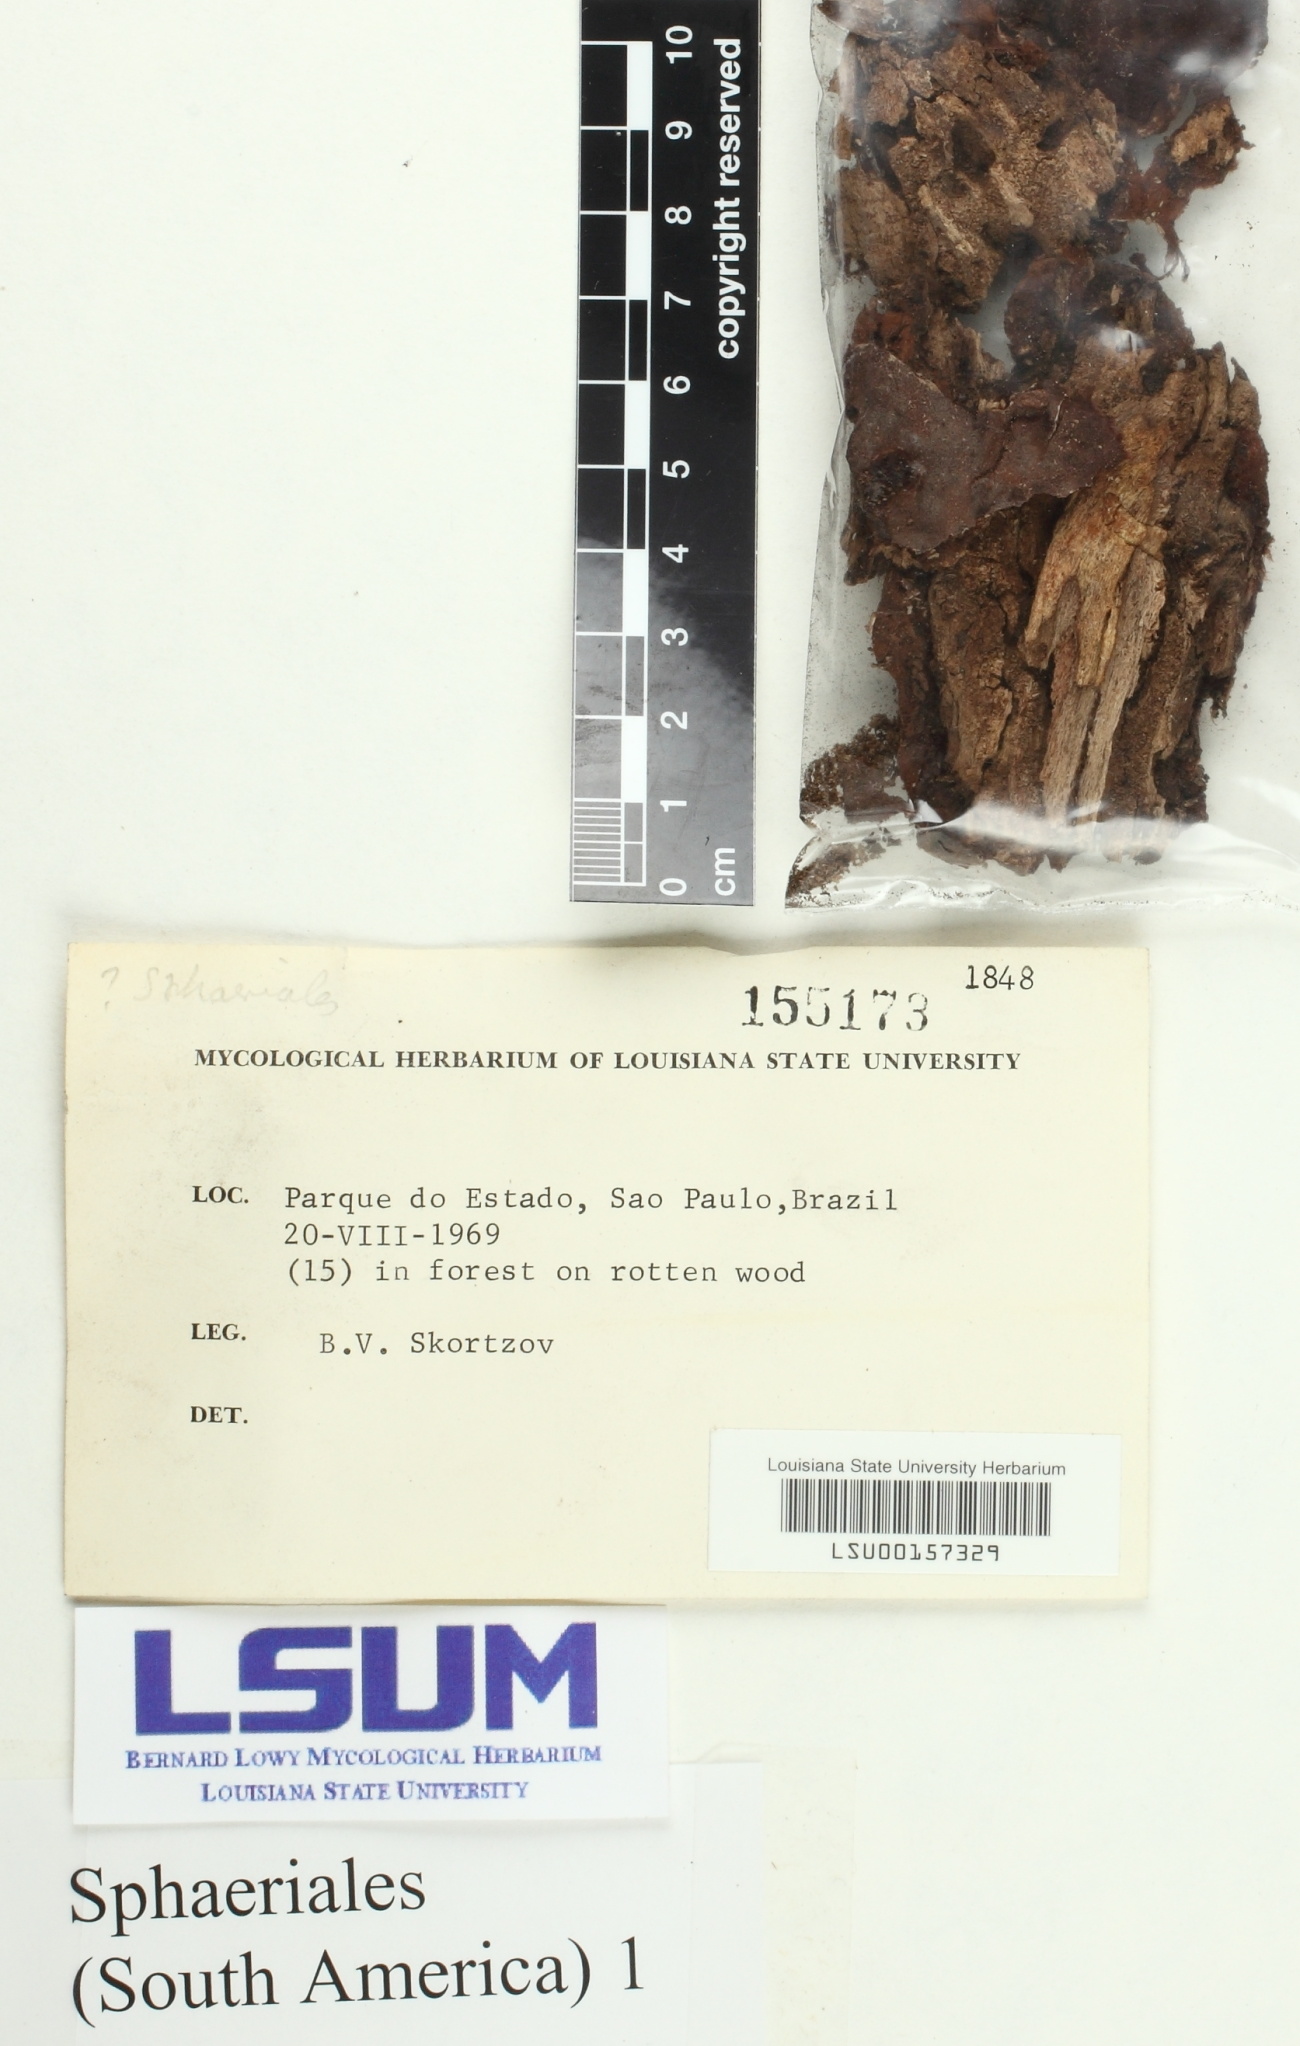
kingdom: Fungi
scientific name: Fungi
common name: Fungi
